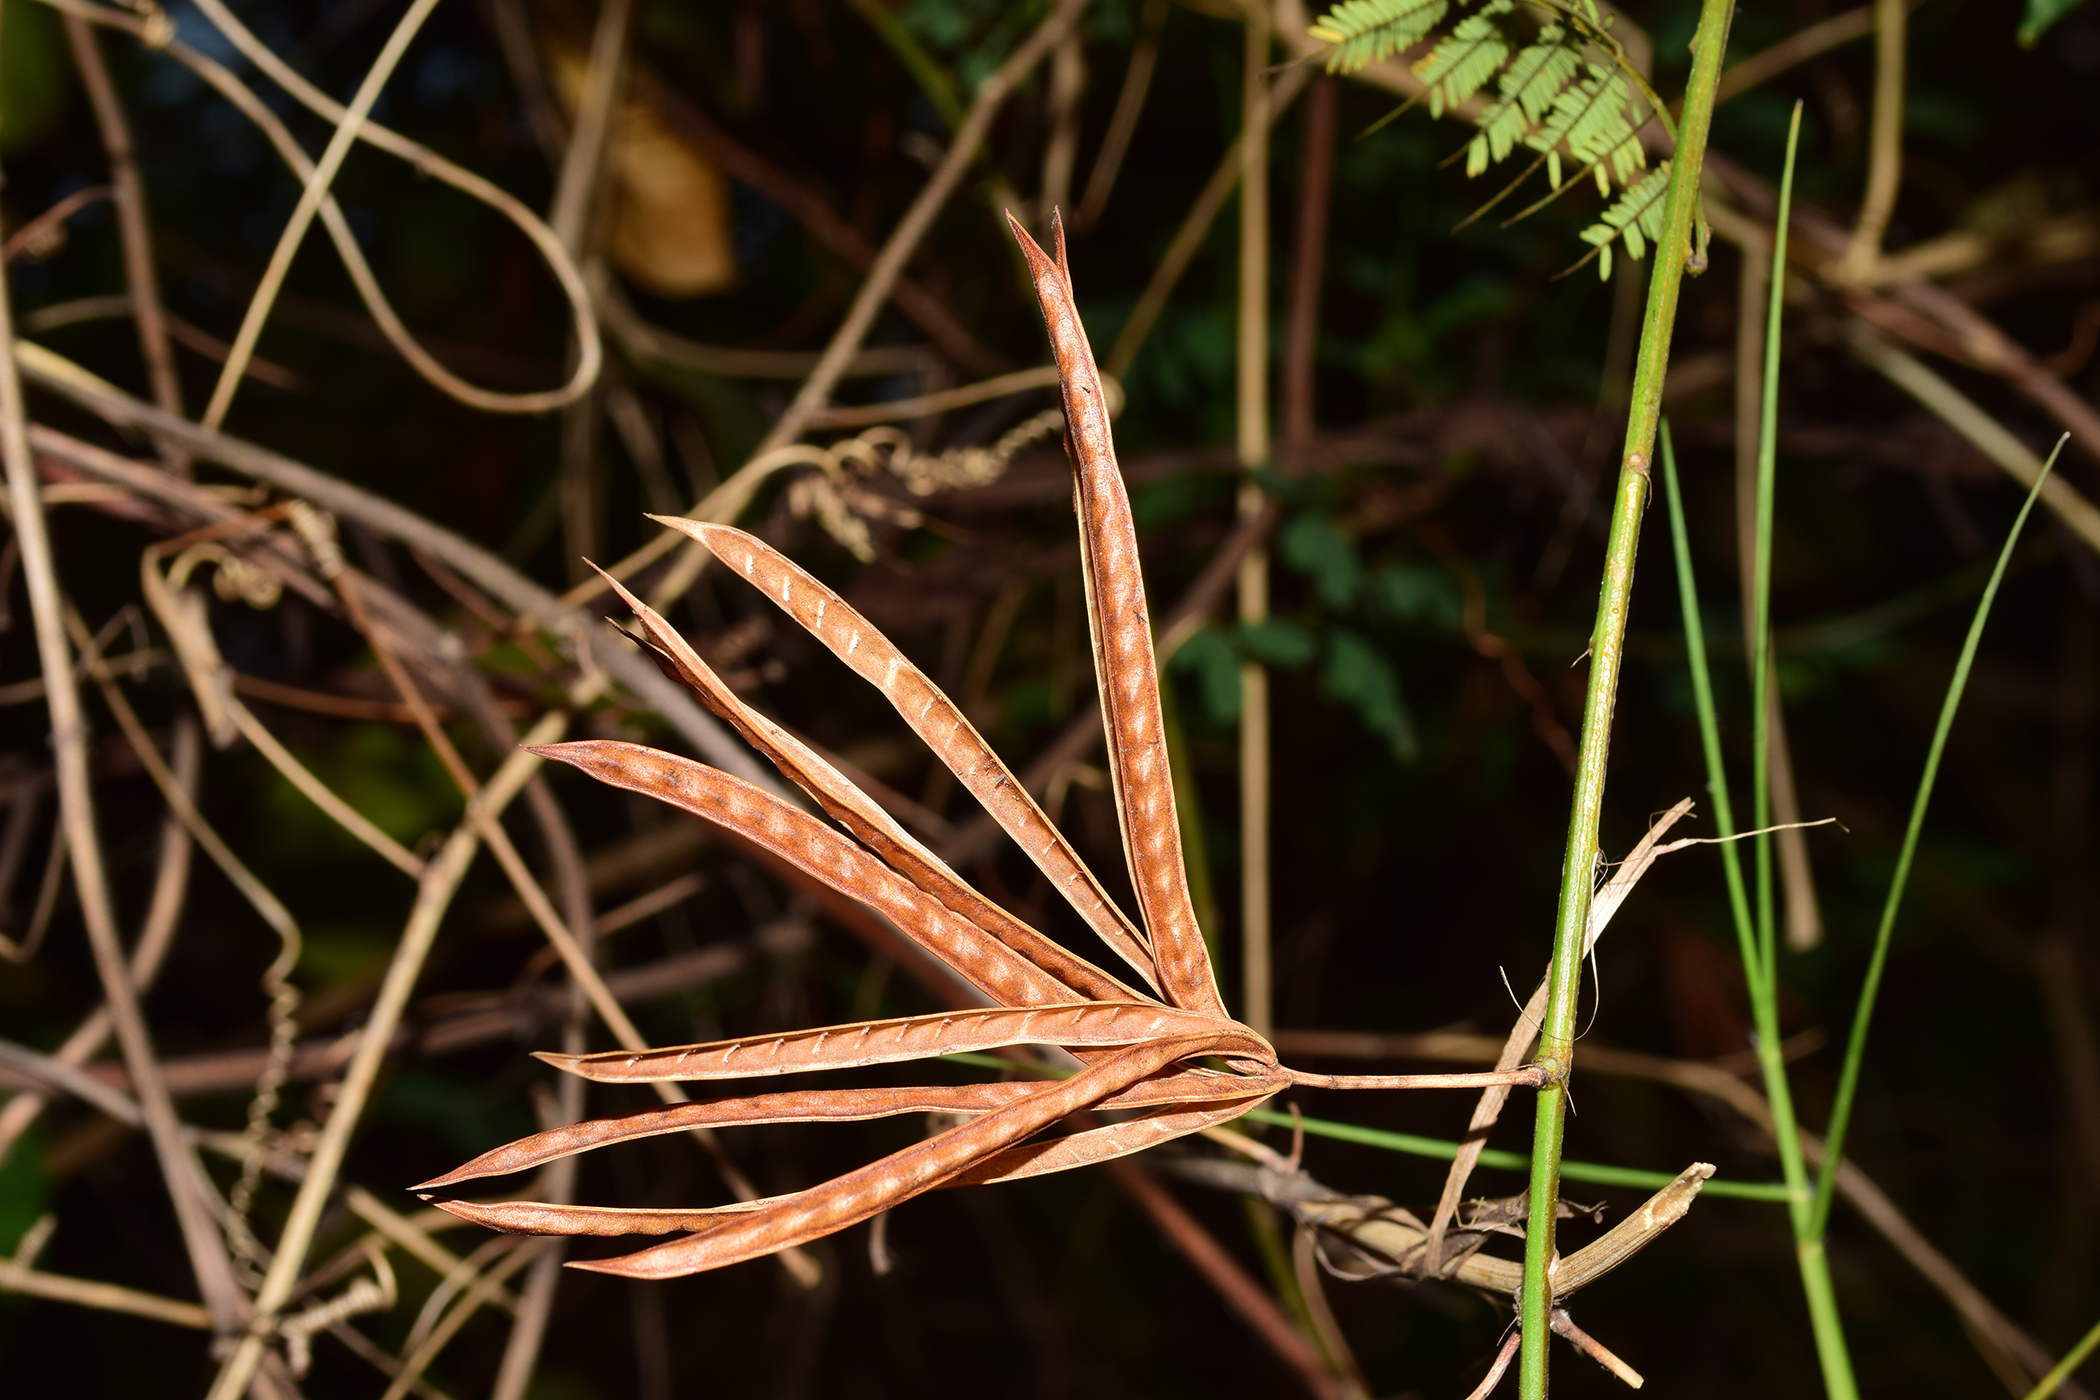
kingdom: Plantae
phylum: Tracheophyta
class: Magnoliopsida
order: Fabales
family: Fabaceae
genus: Desmanthus
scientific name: Desmanthus pernambucanus
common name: Pigeon bundleflower
